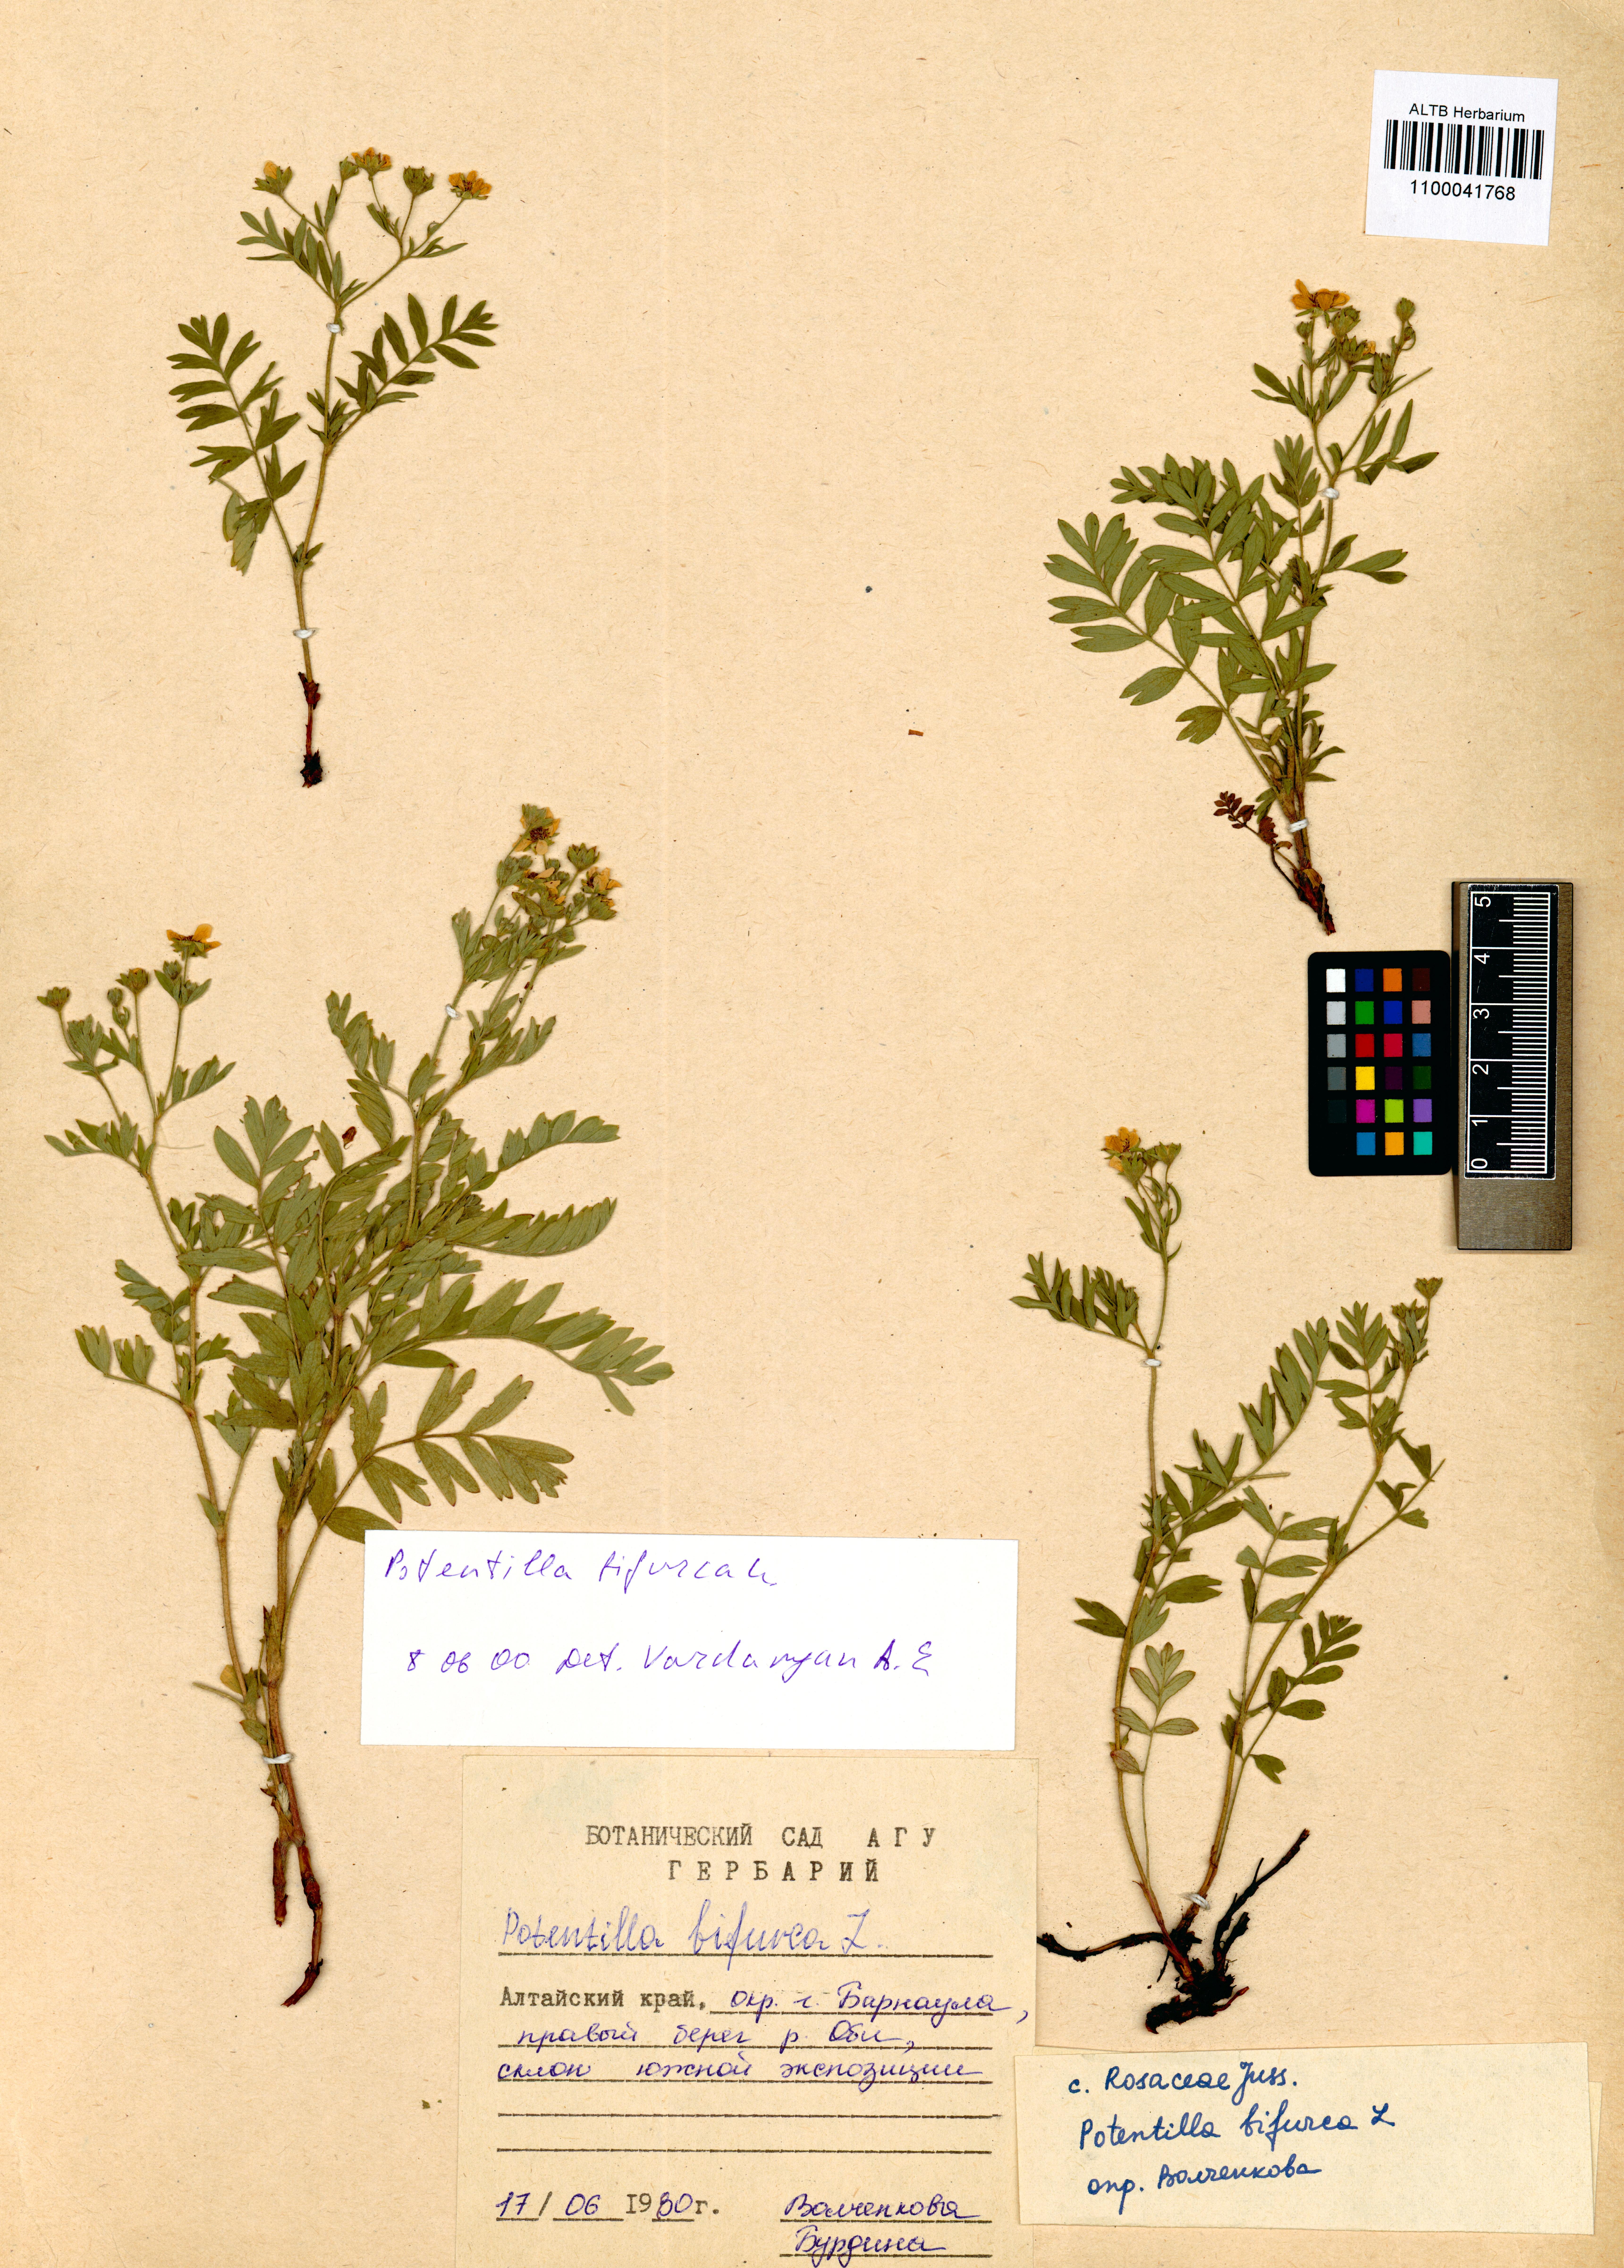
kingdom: Plantae
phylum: Tracheophyta
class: Magnoliopsida
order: Rosales
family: Rosaceae
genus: Sibbaldianthe
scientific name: Sibbaldianthe bifurca
